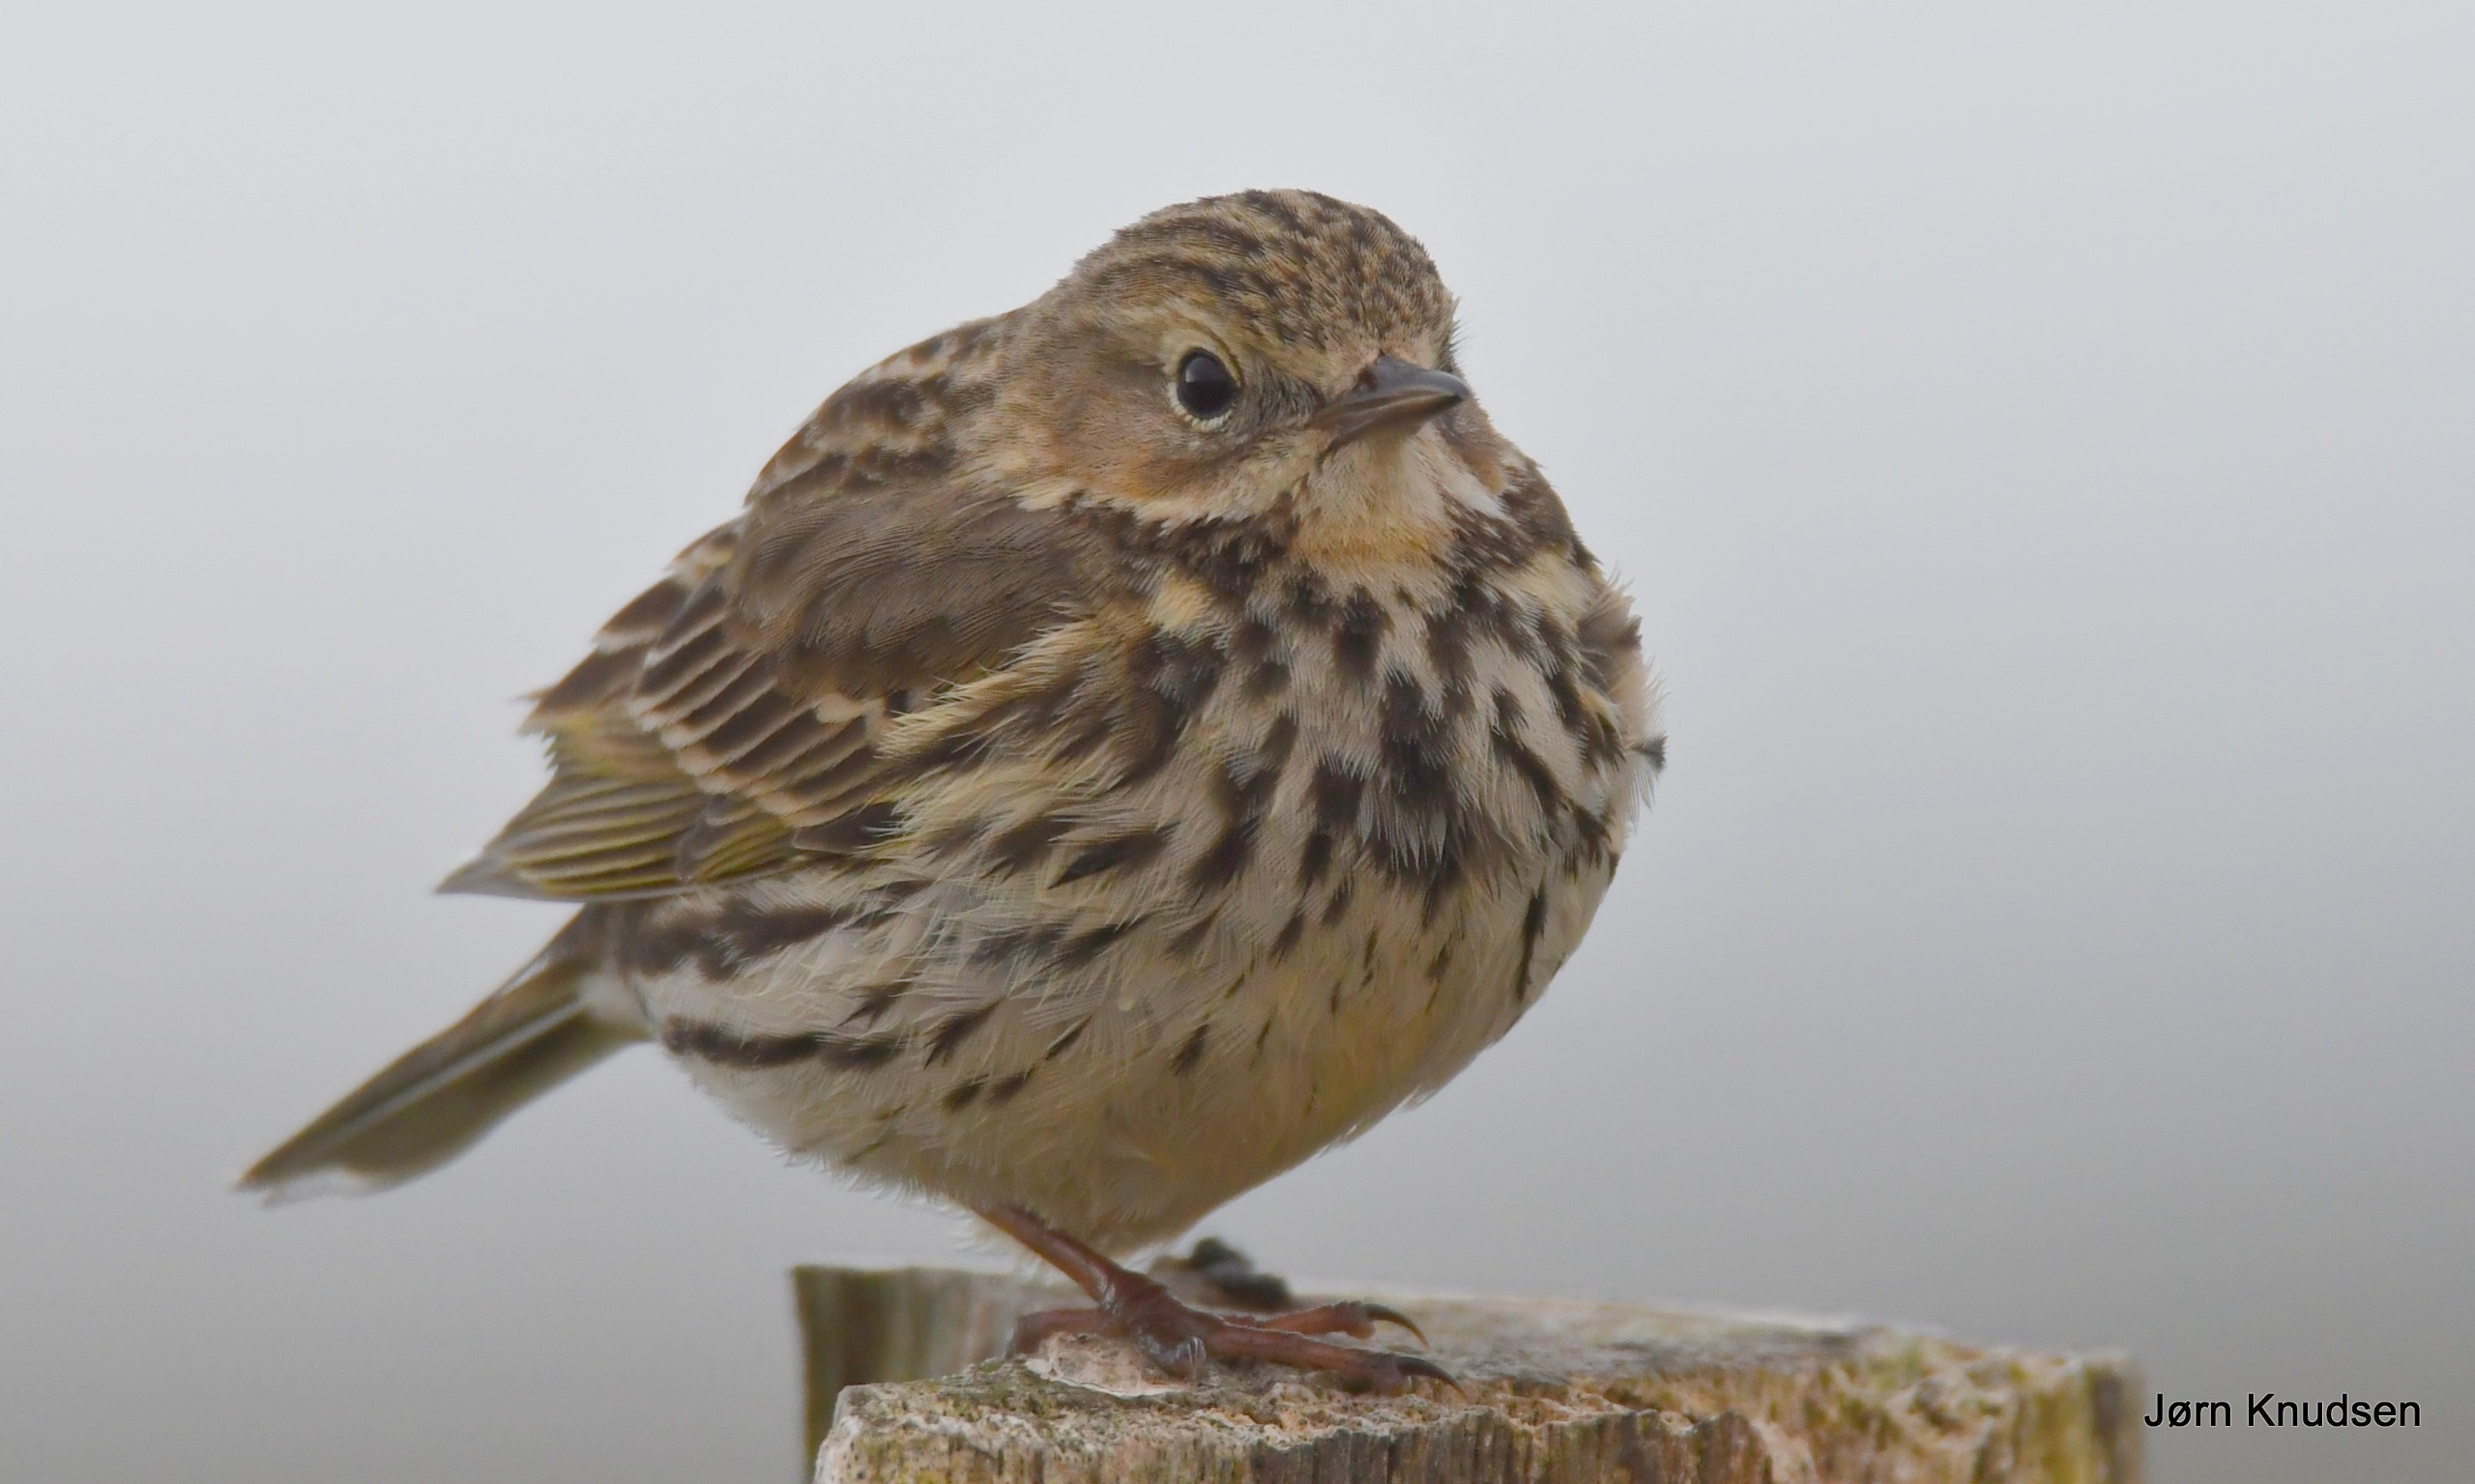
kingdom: Animalia
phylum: Chordata
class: Aves
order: Passeriformes
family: Motacillidae
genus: Anthus
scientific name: Anthus pratensis
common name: Engpiber
